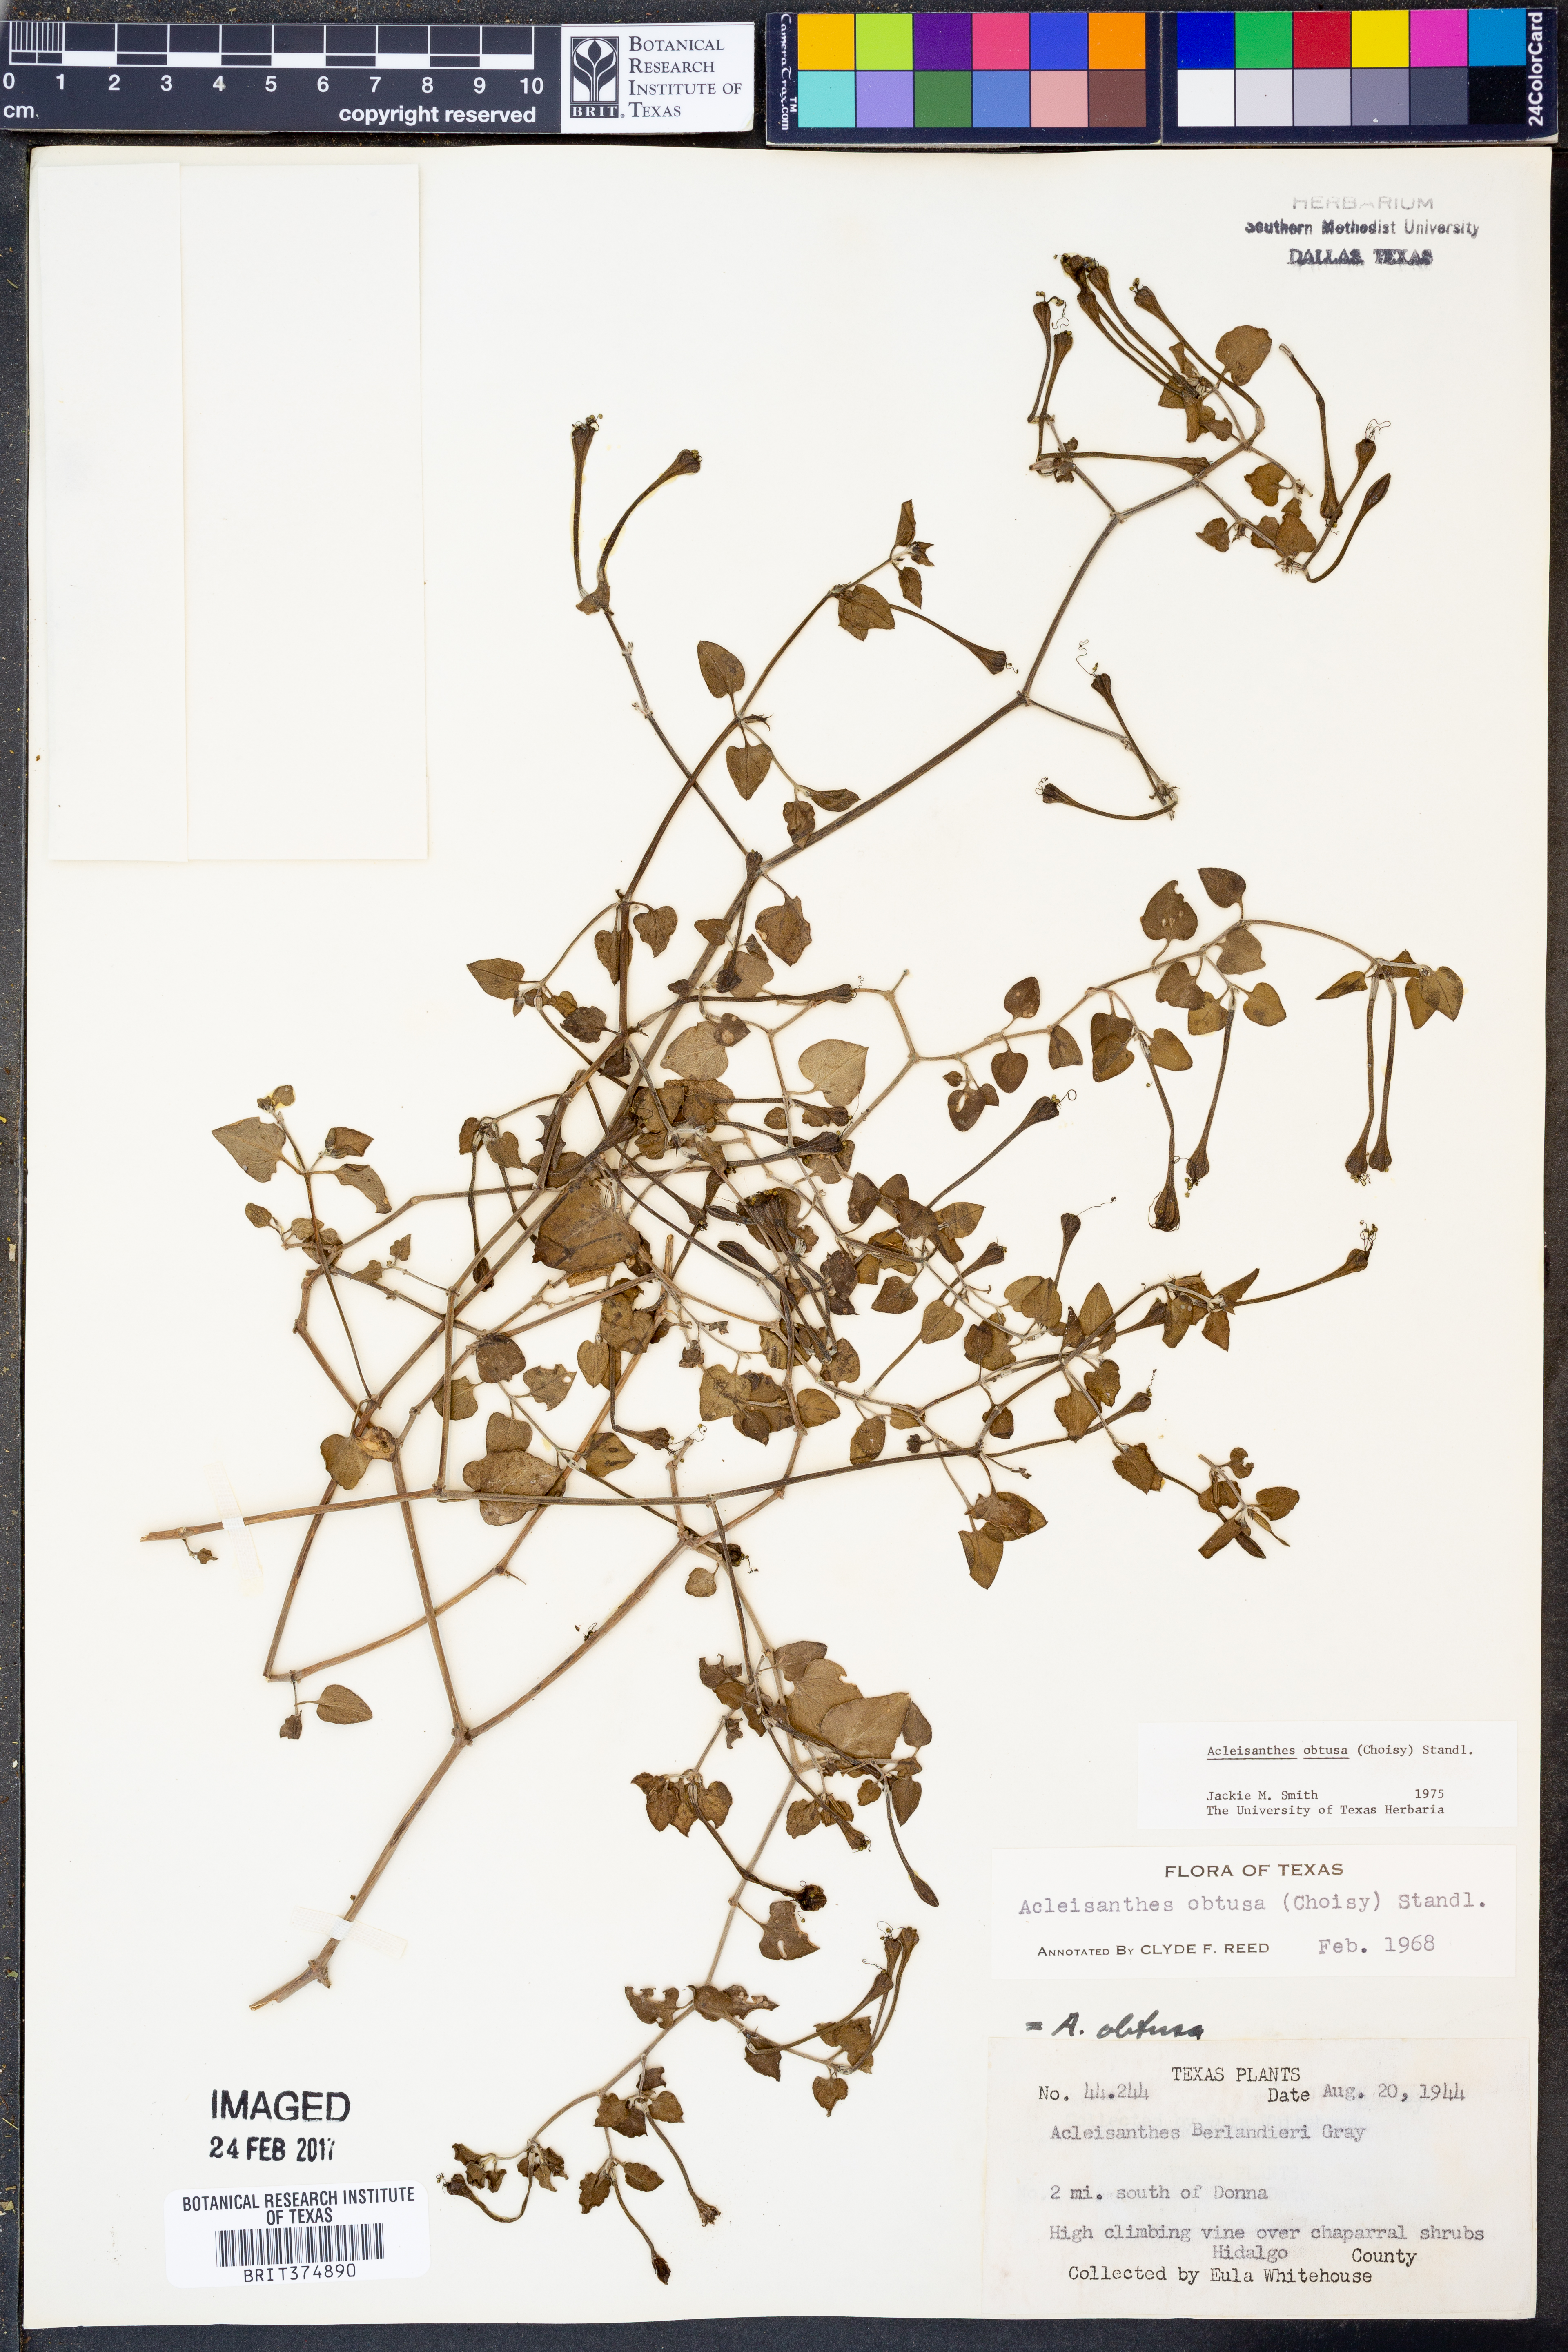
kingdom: Plantae
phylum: Tracheophyta
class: Magnoliopsida
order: Caryophyllales
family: Nyctaginaceae
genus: Acleisanthes
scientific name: Acleisanthes obtusa
